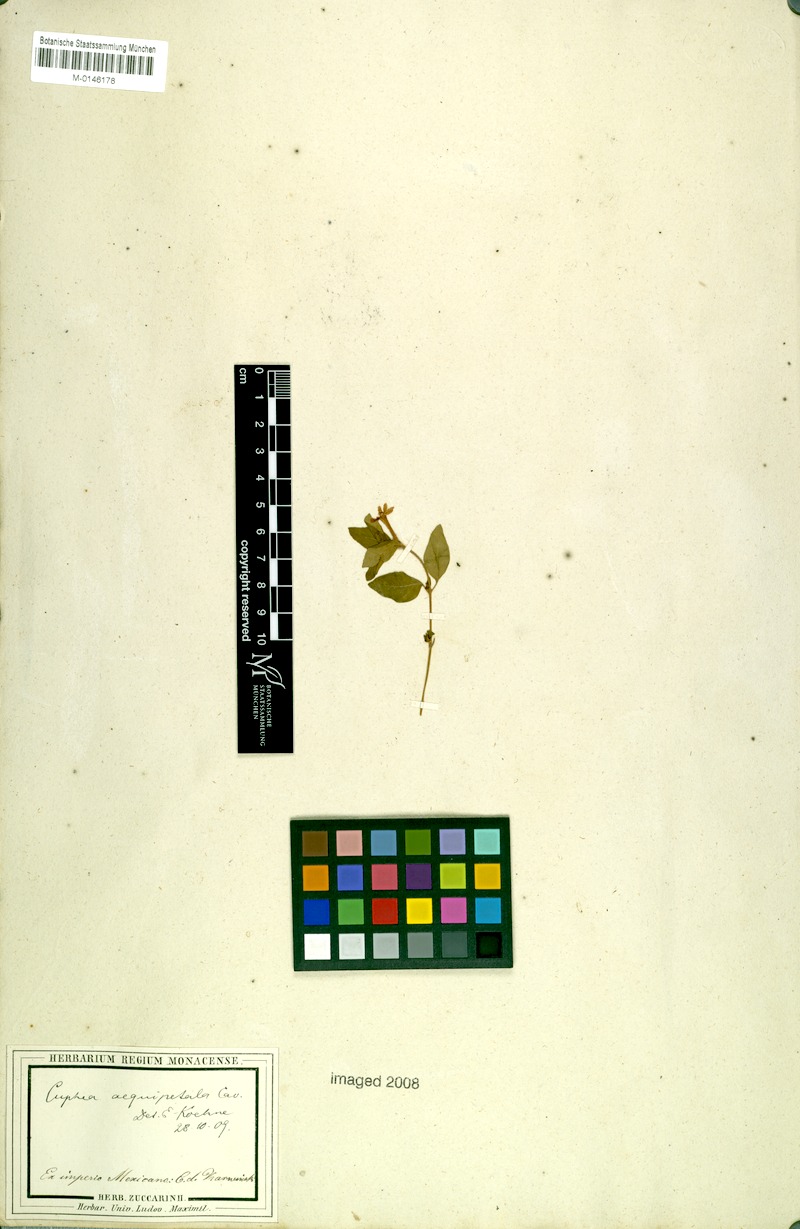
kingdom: Plantae
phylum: Tracheophyta
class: Magnoliopsida
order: Myrtales
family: Lythraceae
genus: Cuphea
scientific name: Cuphea aequipetala
